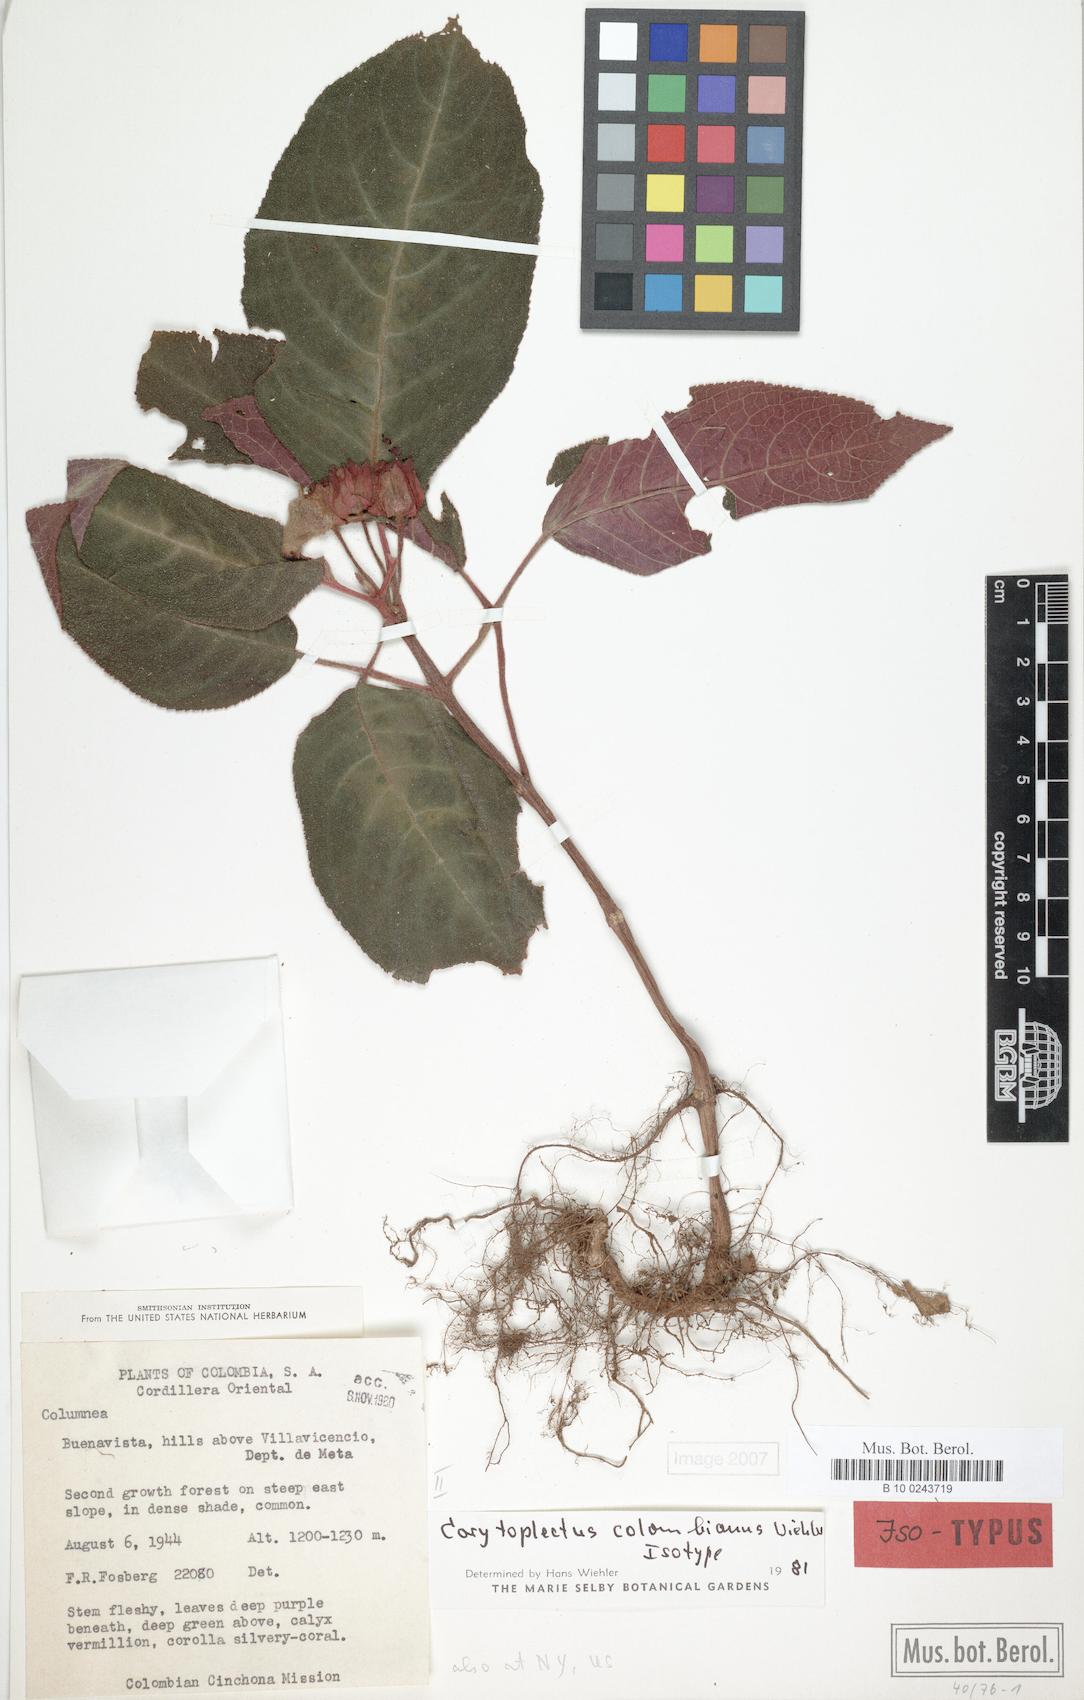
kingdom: Plantae
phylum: Tracheophyta
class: Magnoliopsida
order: Lamiales
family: Gesneriaceae
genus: Corytoplectus
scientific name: Corytoplectus
